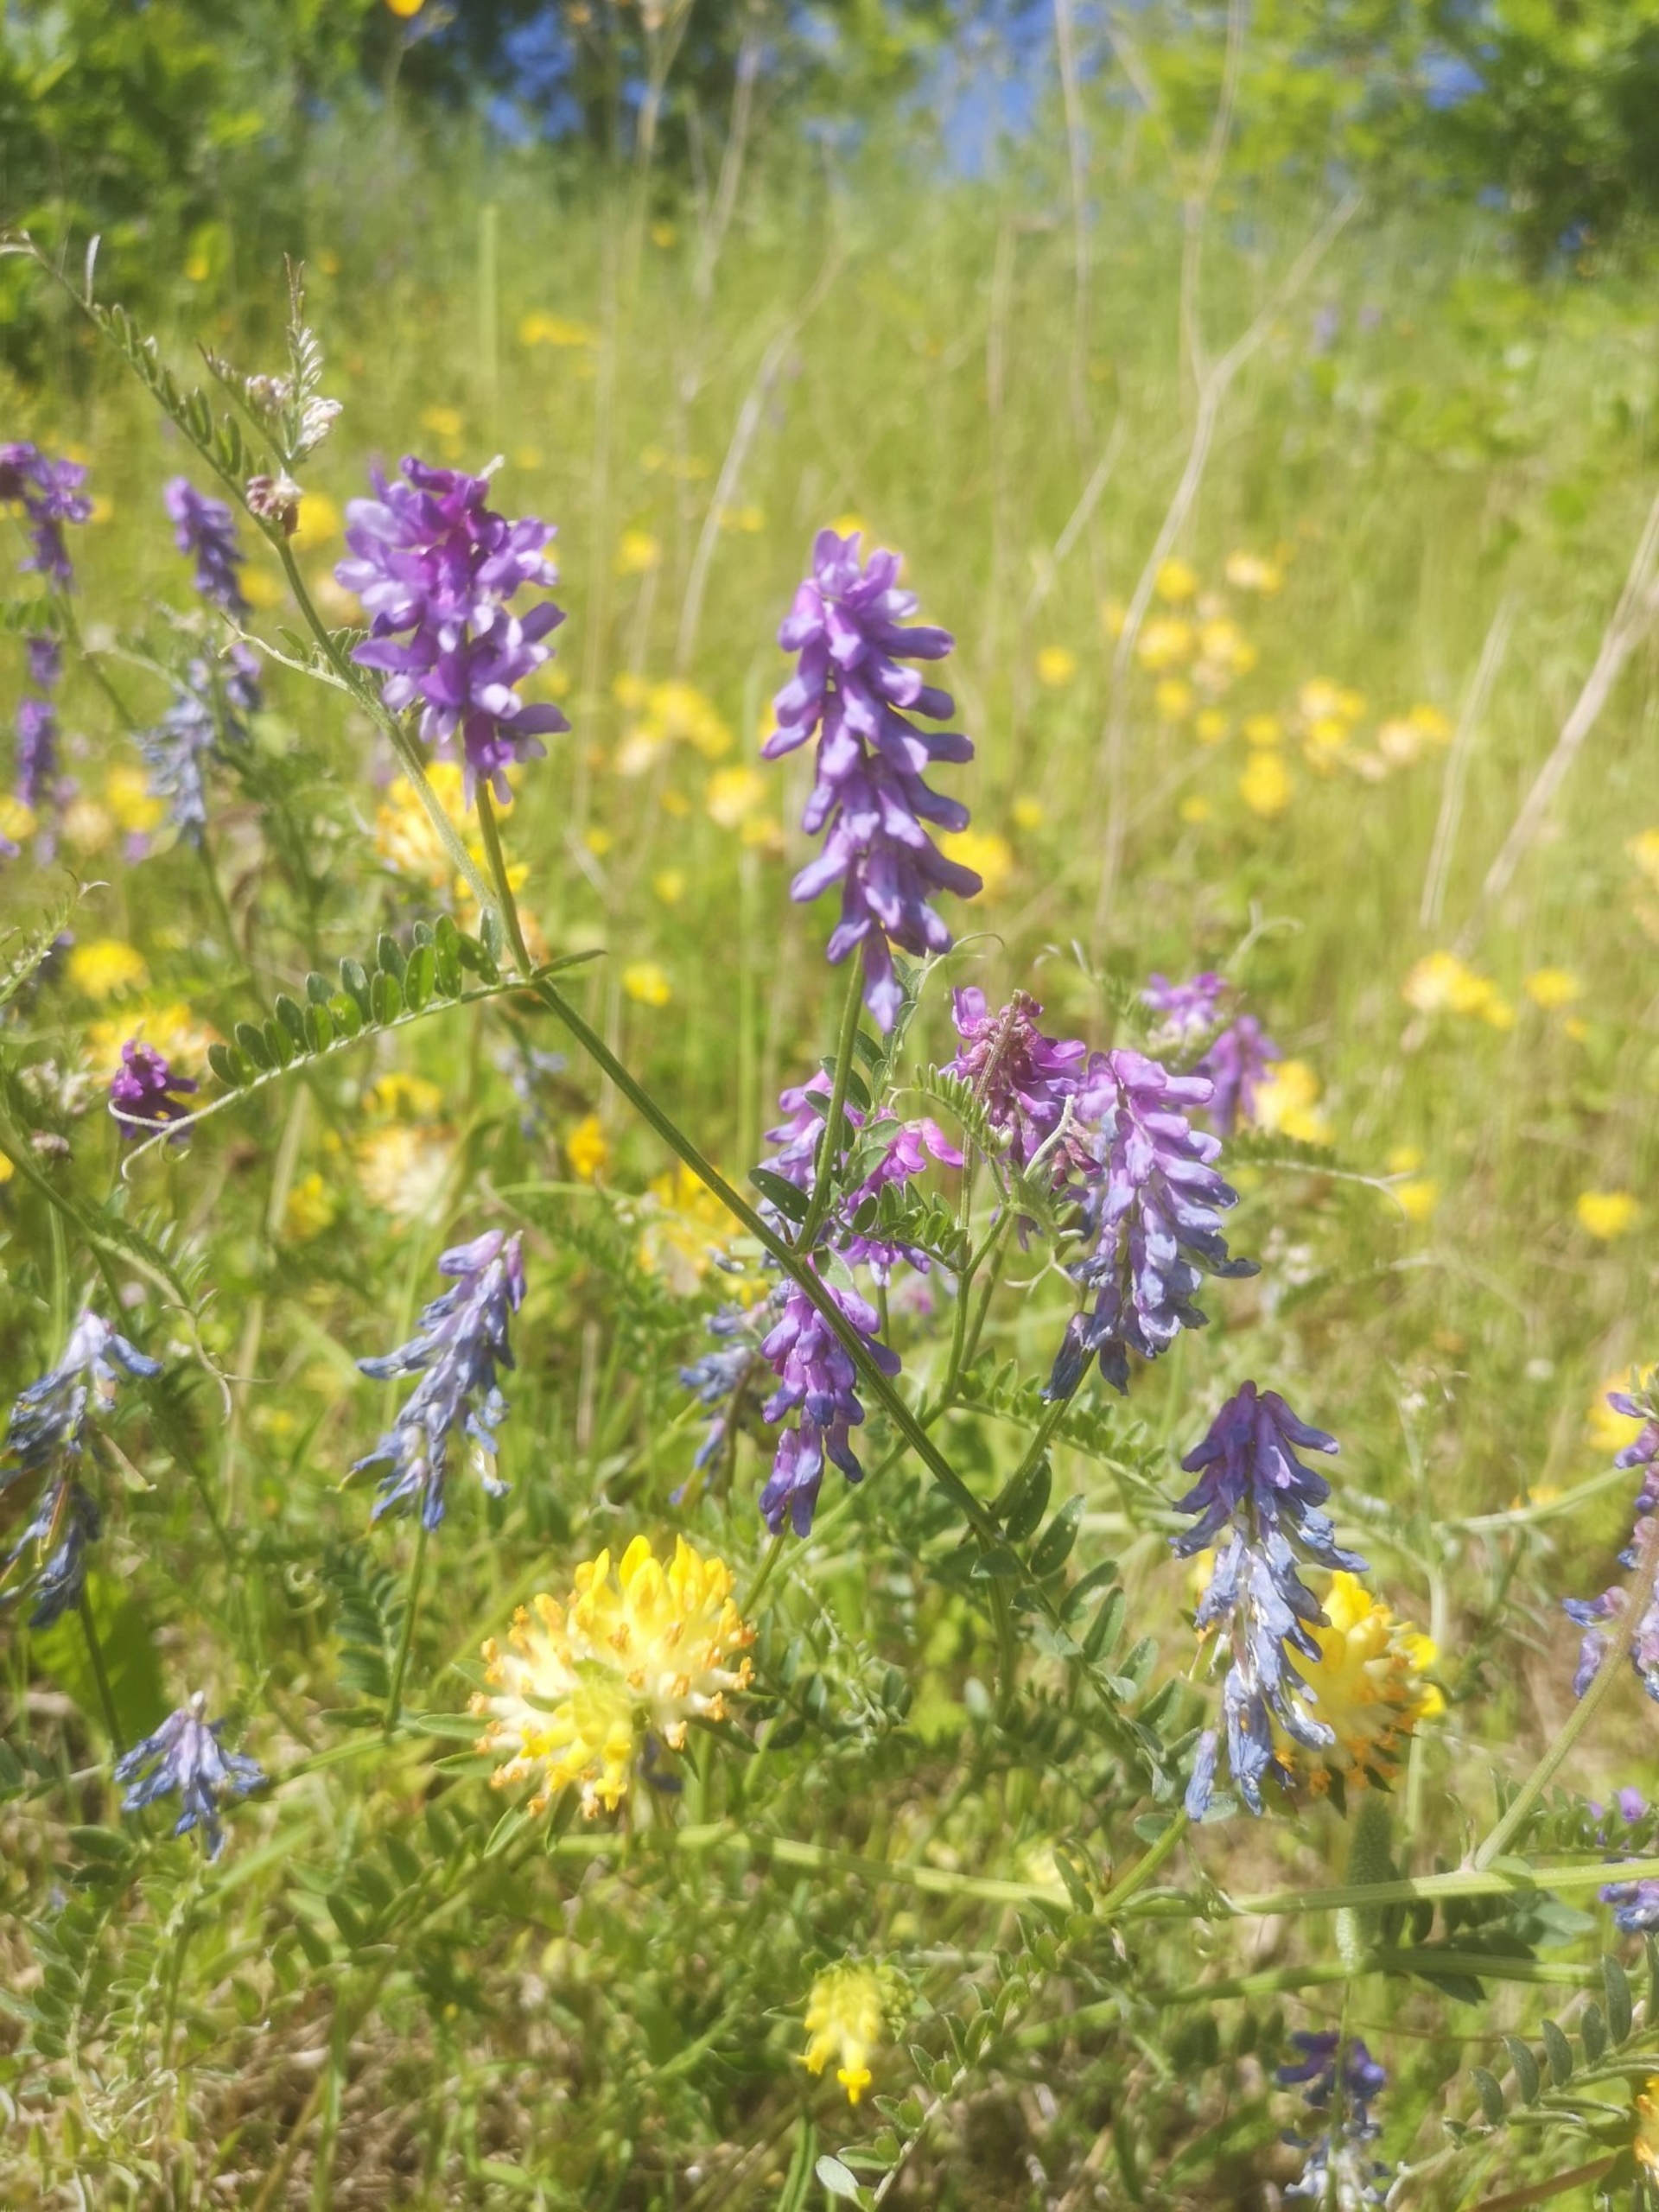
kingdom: Plantae
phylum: Tracheophyta
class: Magnoliopsida
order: Fabales
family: Fabaceae
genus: Vicia
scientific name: Vicia cracca
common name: Muse-vikke
